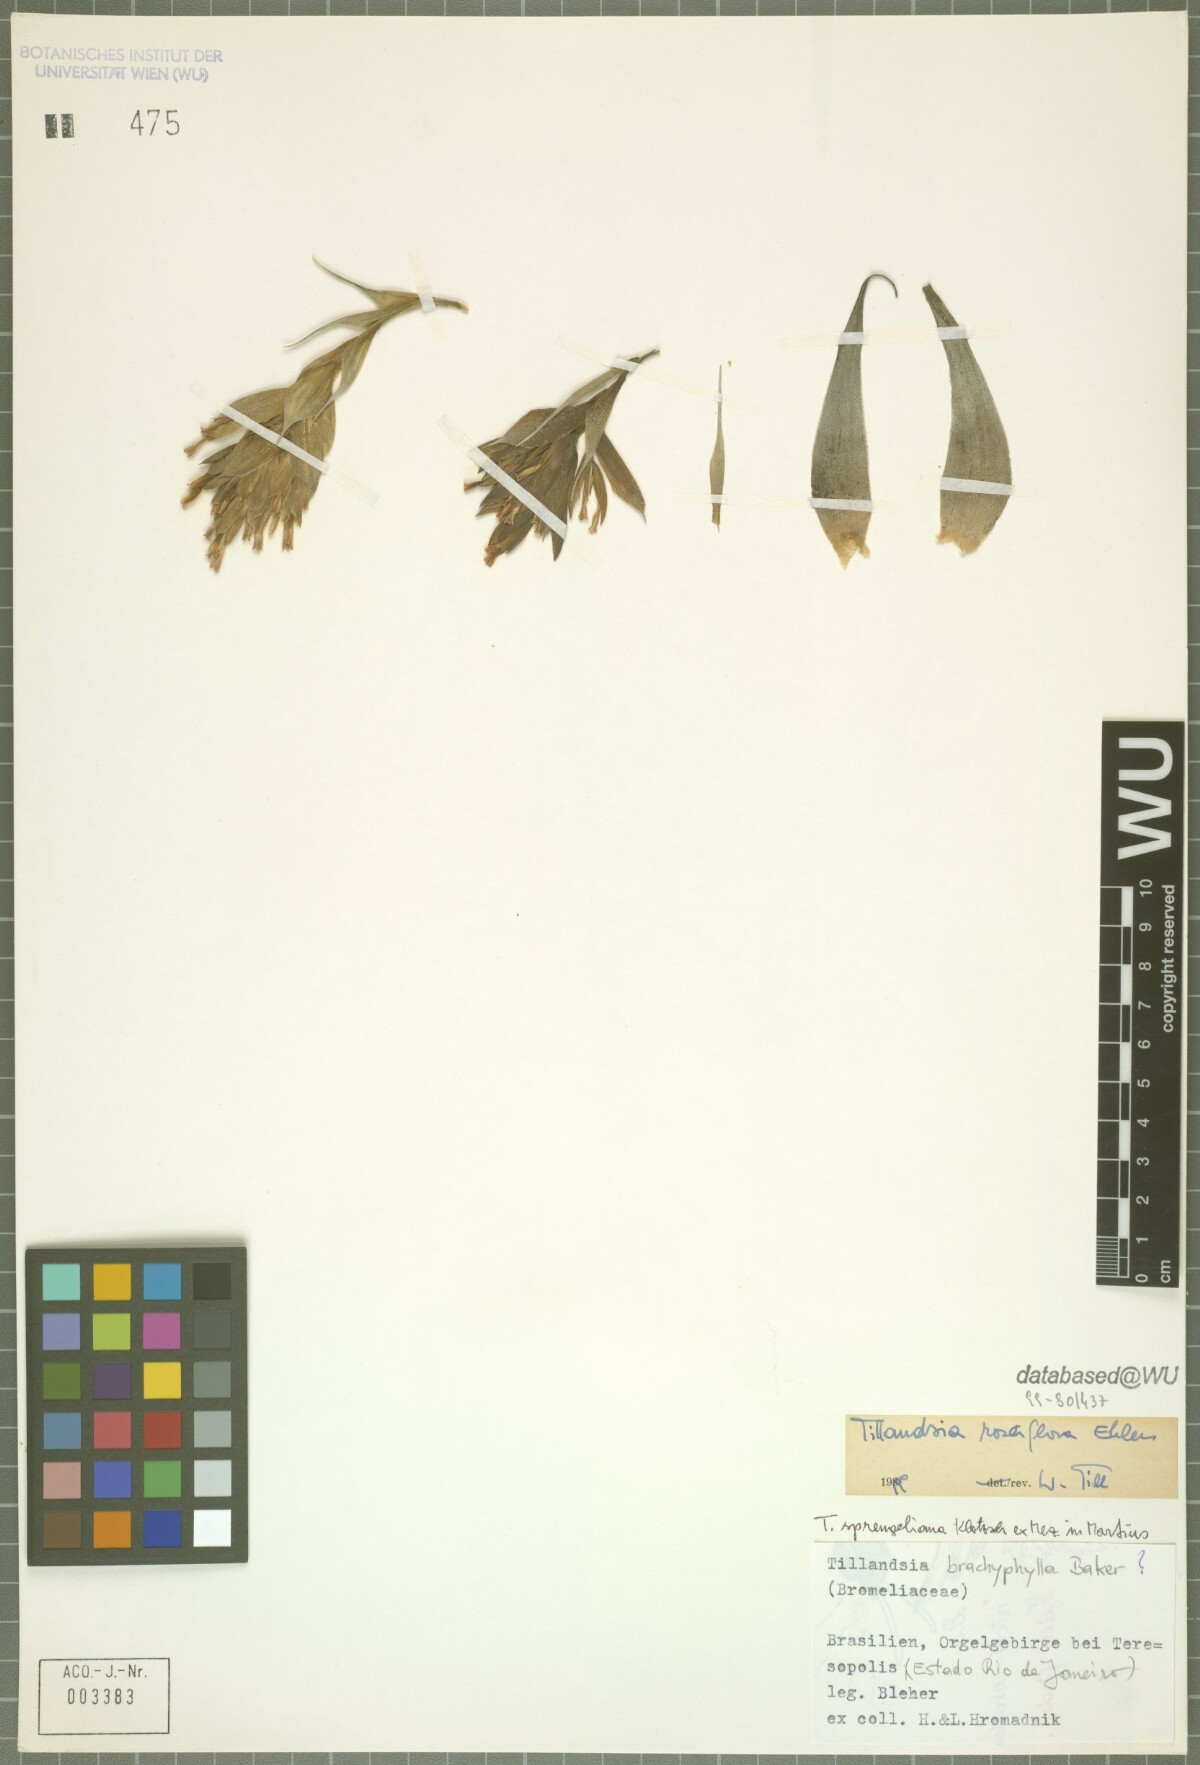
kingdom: Plantae
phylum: Tracheophyta
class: Liliopsida
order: Poales
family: Bromeliaceae
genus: Tillandsia
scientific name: Tillandsia roseiflora
